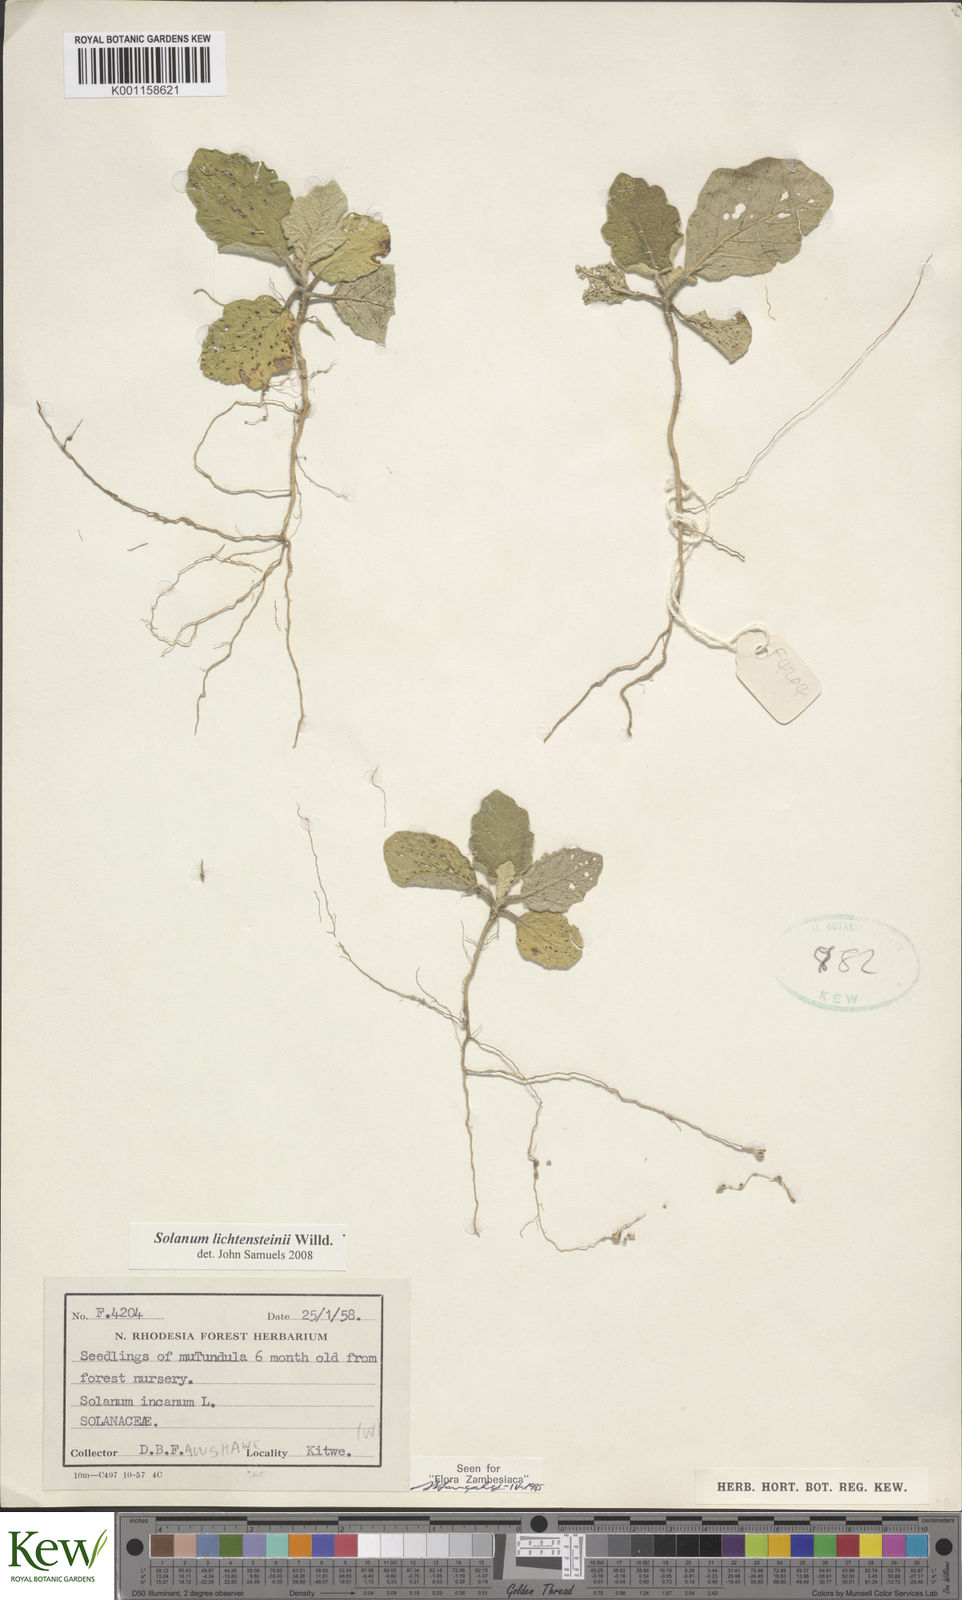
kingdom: Plantae
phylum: Tracheophyta
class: Magnoliopsida
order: Solanales
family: Solanaceae
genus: Solanum
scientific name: Solanum lichtensteinii
